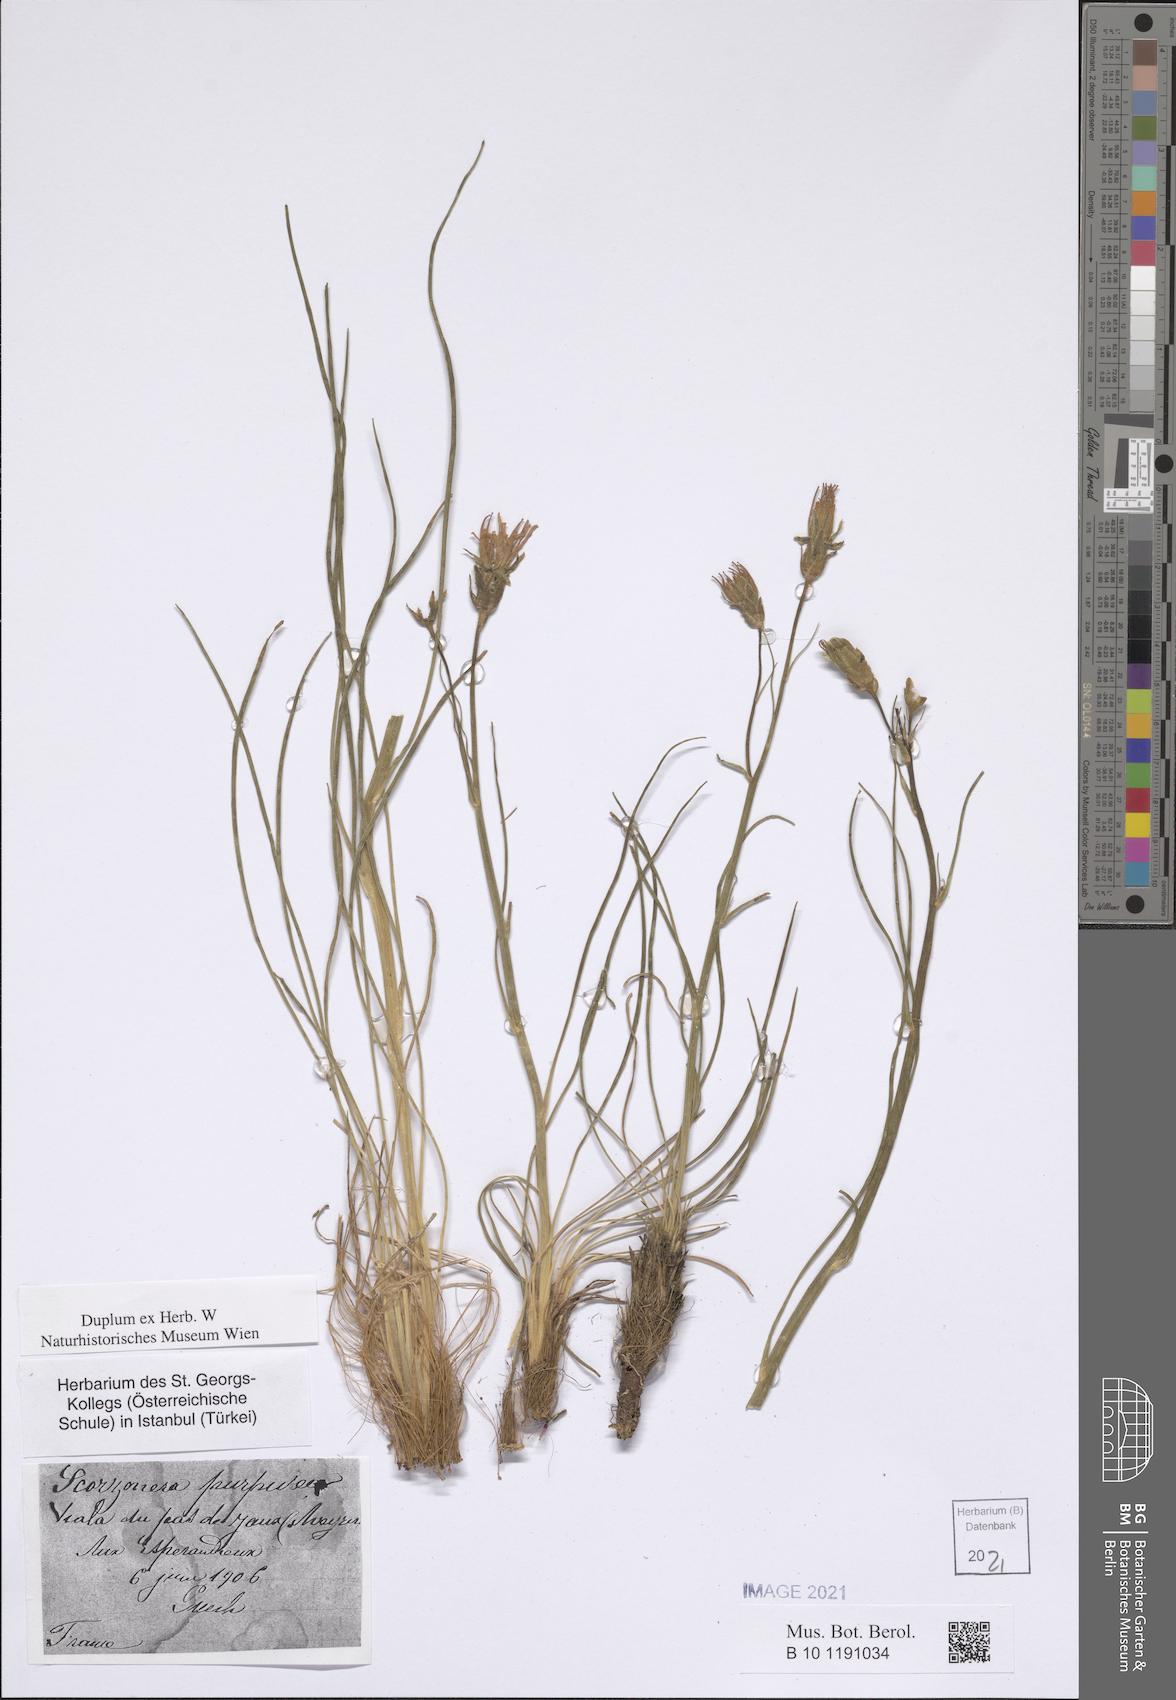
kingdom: Plantae
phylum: Tracheophyta
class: Magnoliopsida
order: Asterales
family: Asteraceae
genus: Scorzonera
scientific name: Scorzonera purpurea
